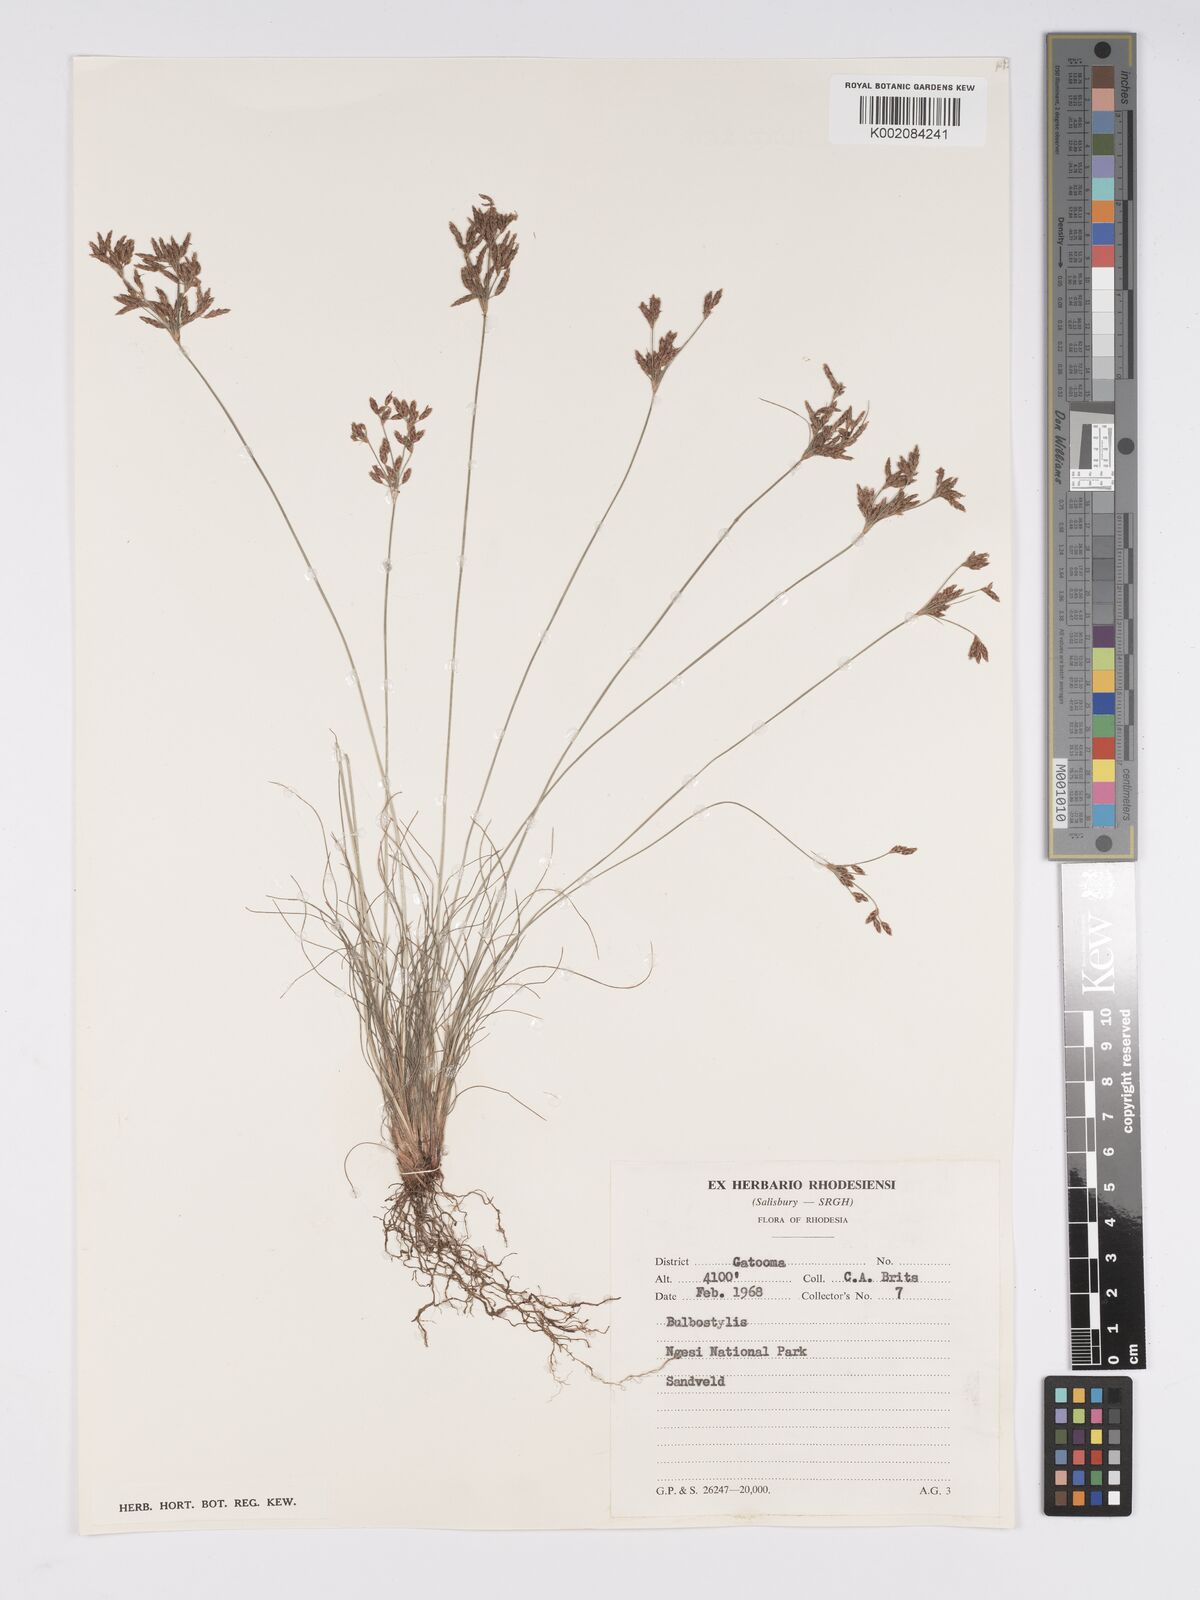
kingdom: Plantae
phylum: Tracheophyta
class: Liliopsida
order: Poales
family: Cyperaceae
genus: Bulbostylis
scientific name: Bulbostylis
